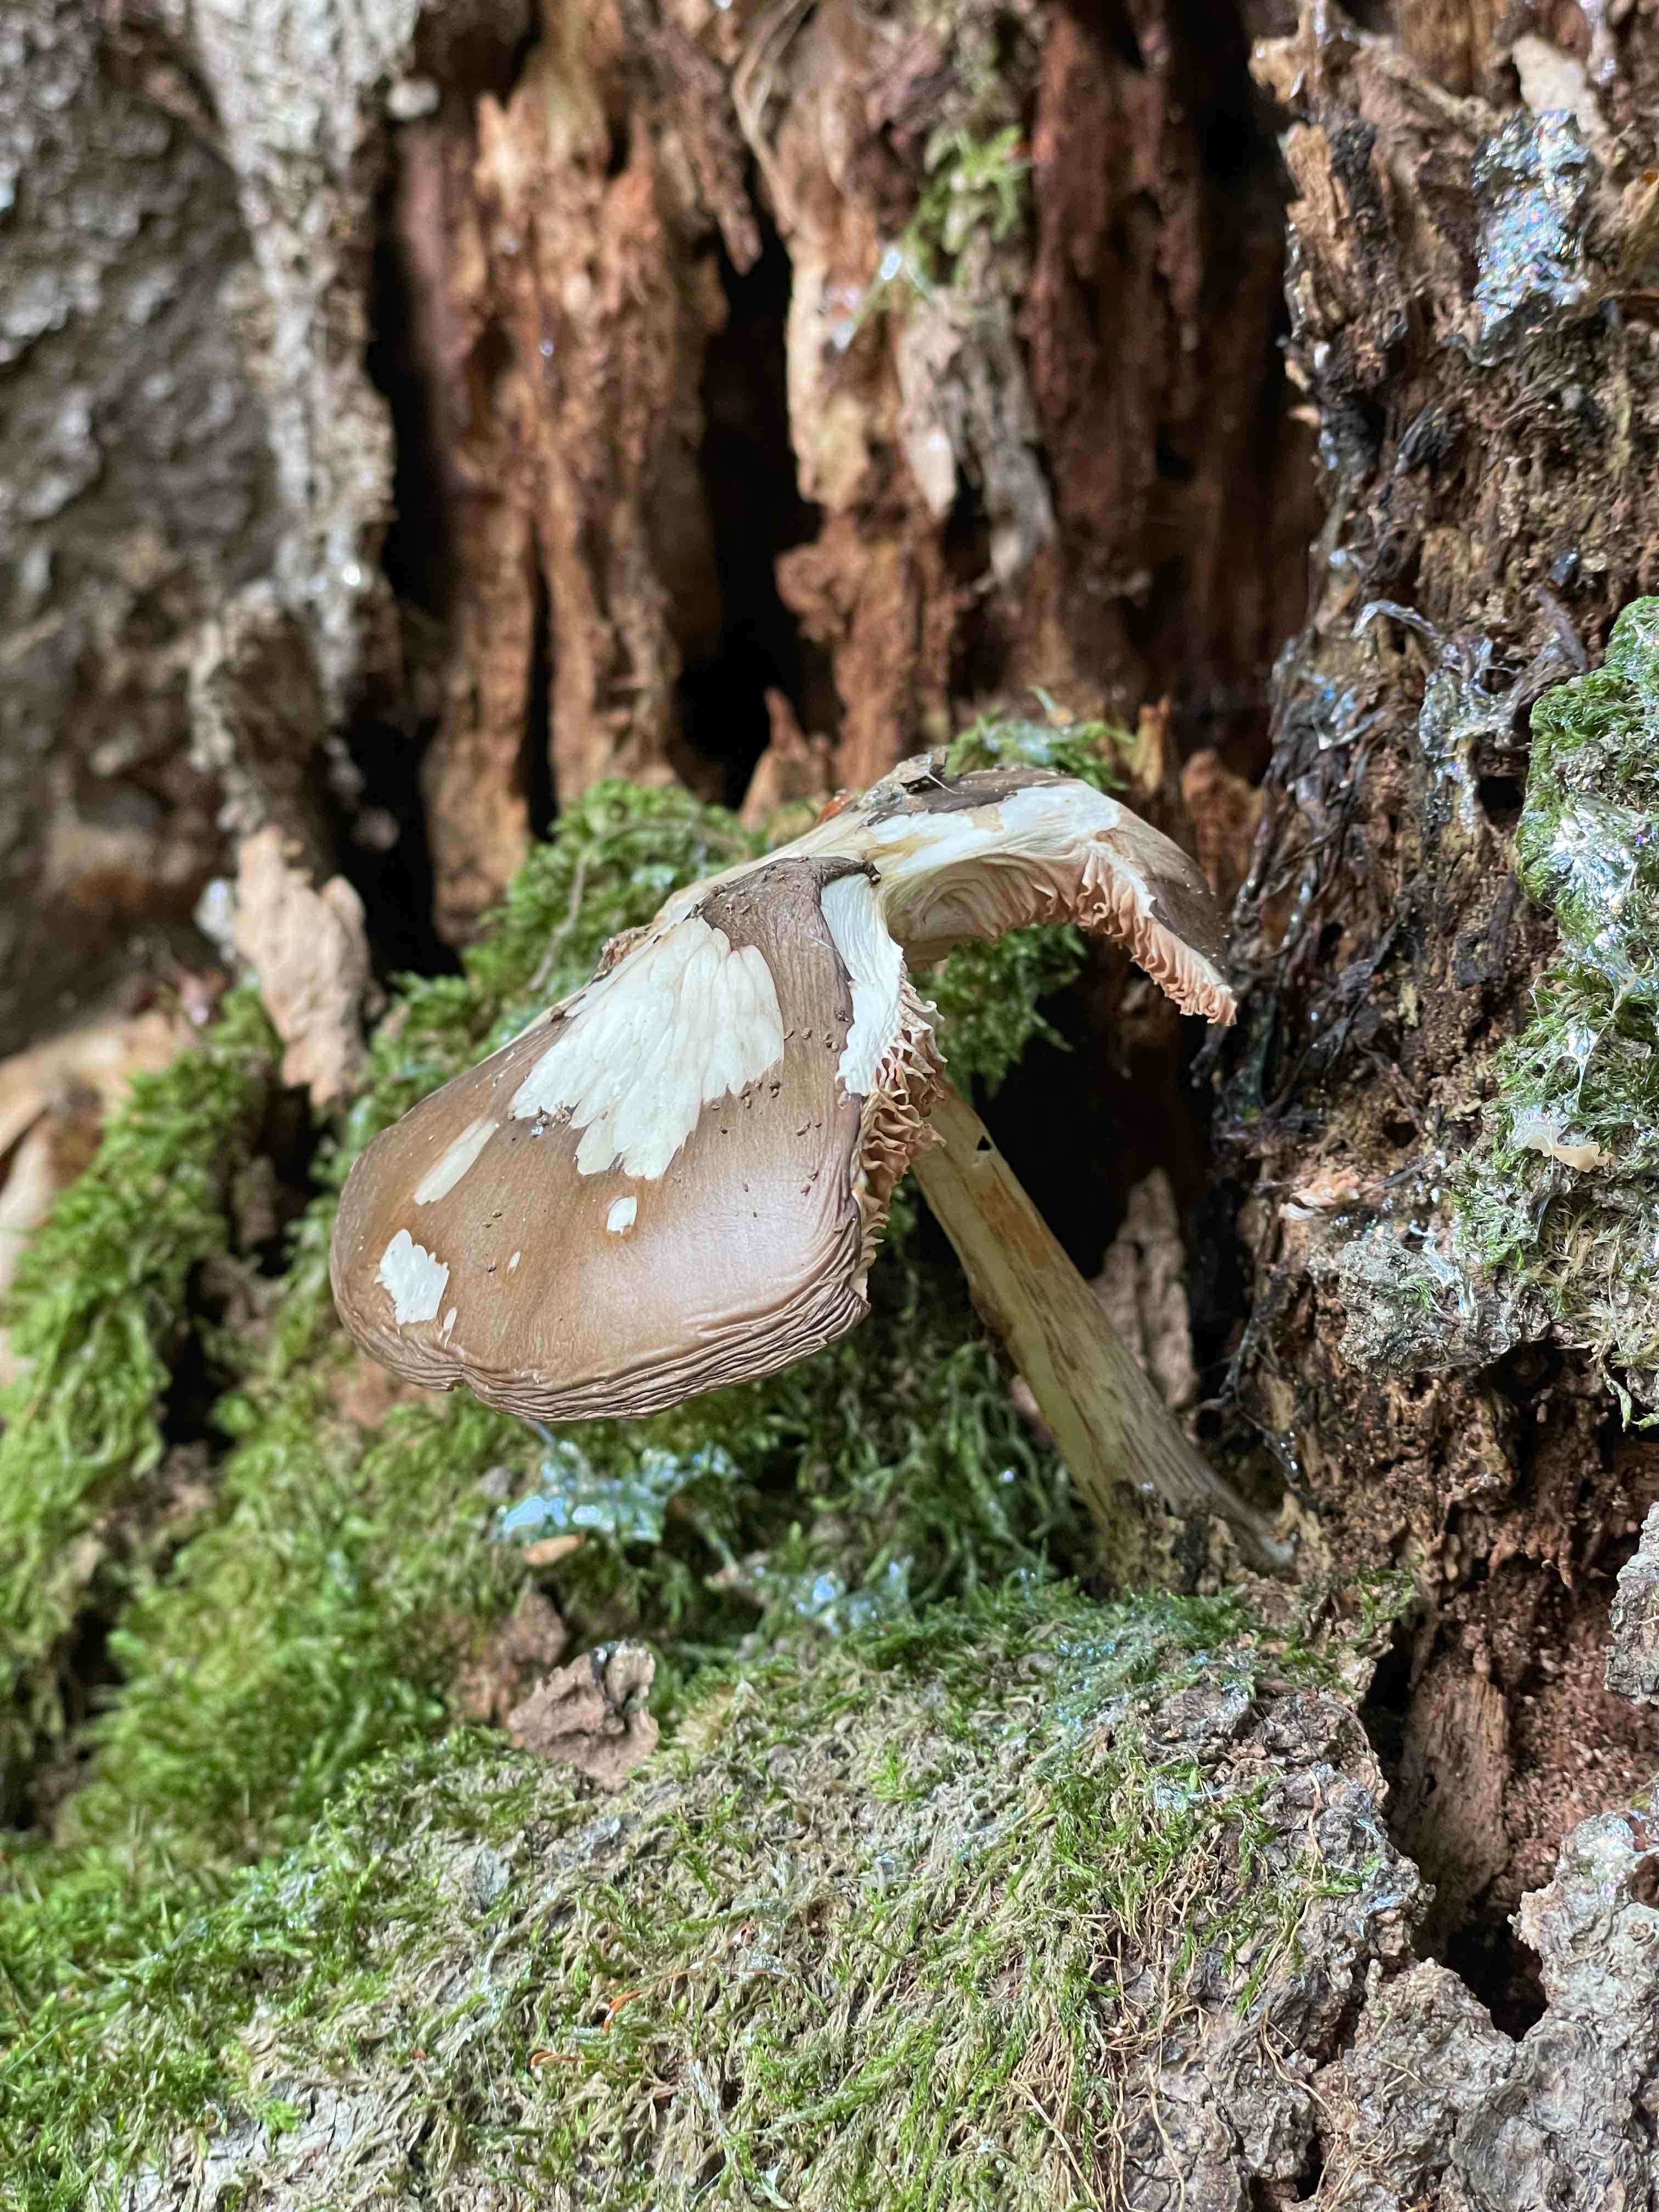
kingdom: Fungi
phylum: Basidiomycota
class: Agaricomycetes
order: Agaricales
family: Pluteaceae
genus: Pluteus
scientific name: Pluteus cervinus
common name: sodfarvet skærmhat
